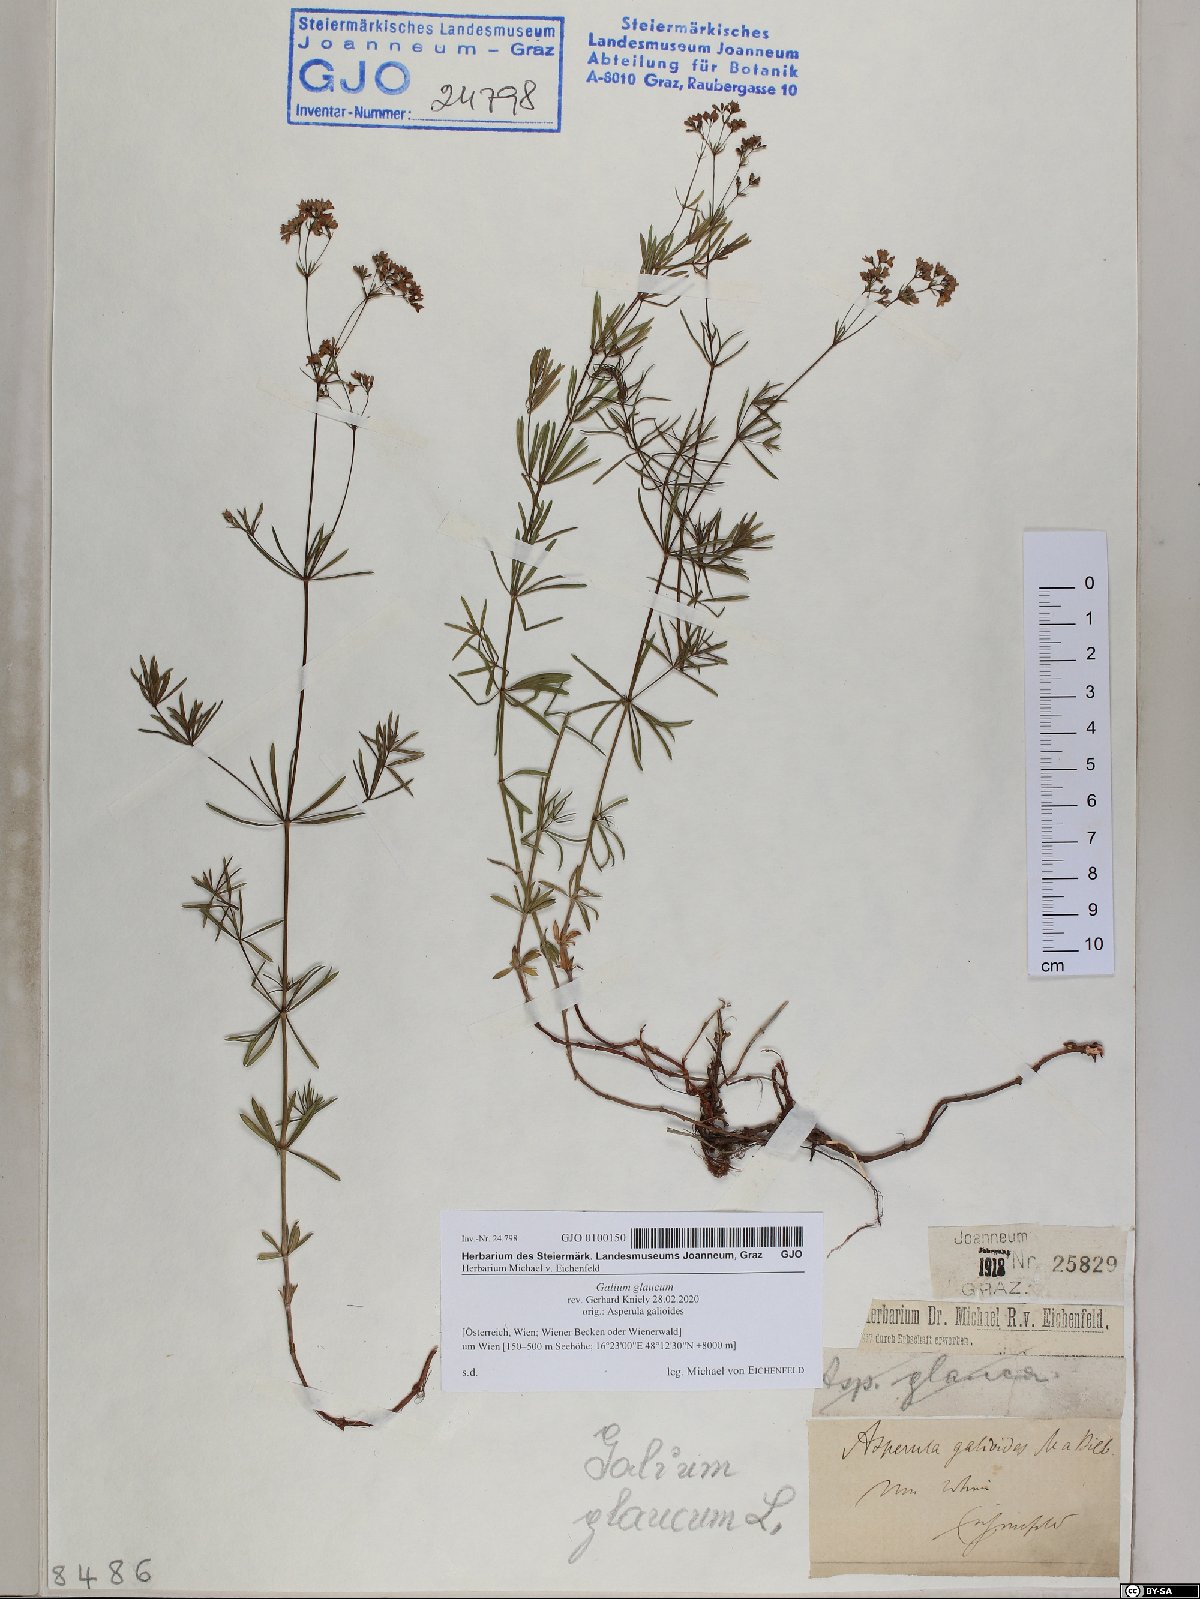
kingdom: Plantae
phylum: Tracheophyta
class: Magnoliopsida
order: Gentianales
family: Rubiaceae
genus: Galium
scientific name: Galium glaucum
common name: Waxy bedstraw
